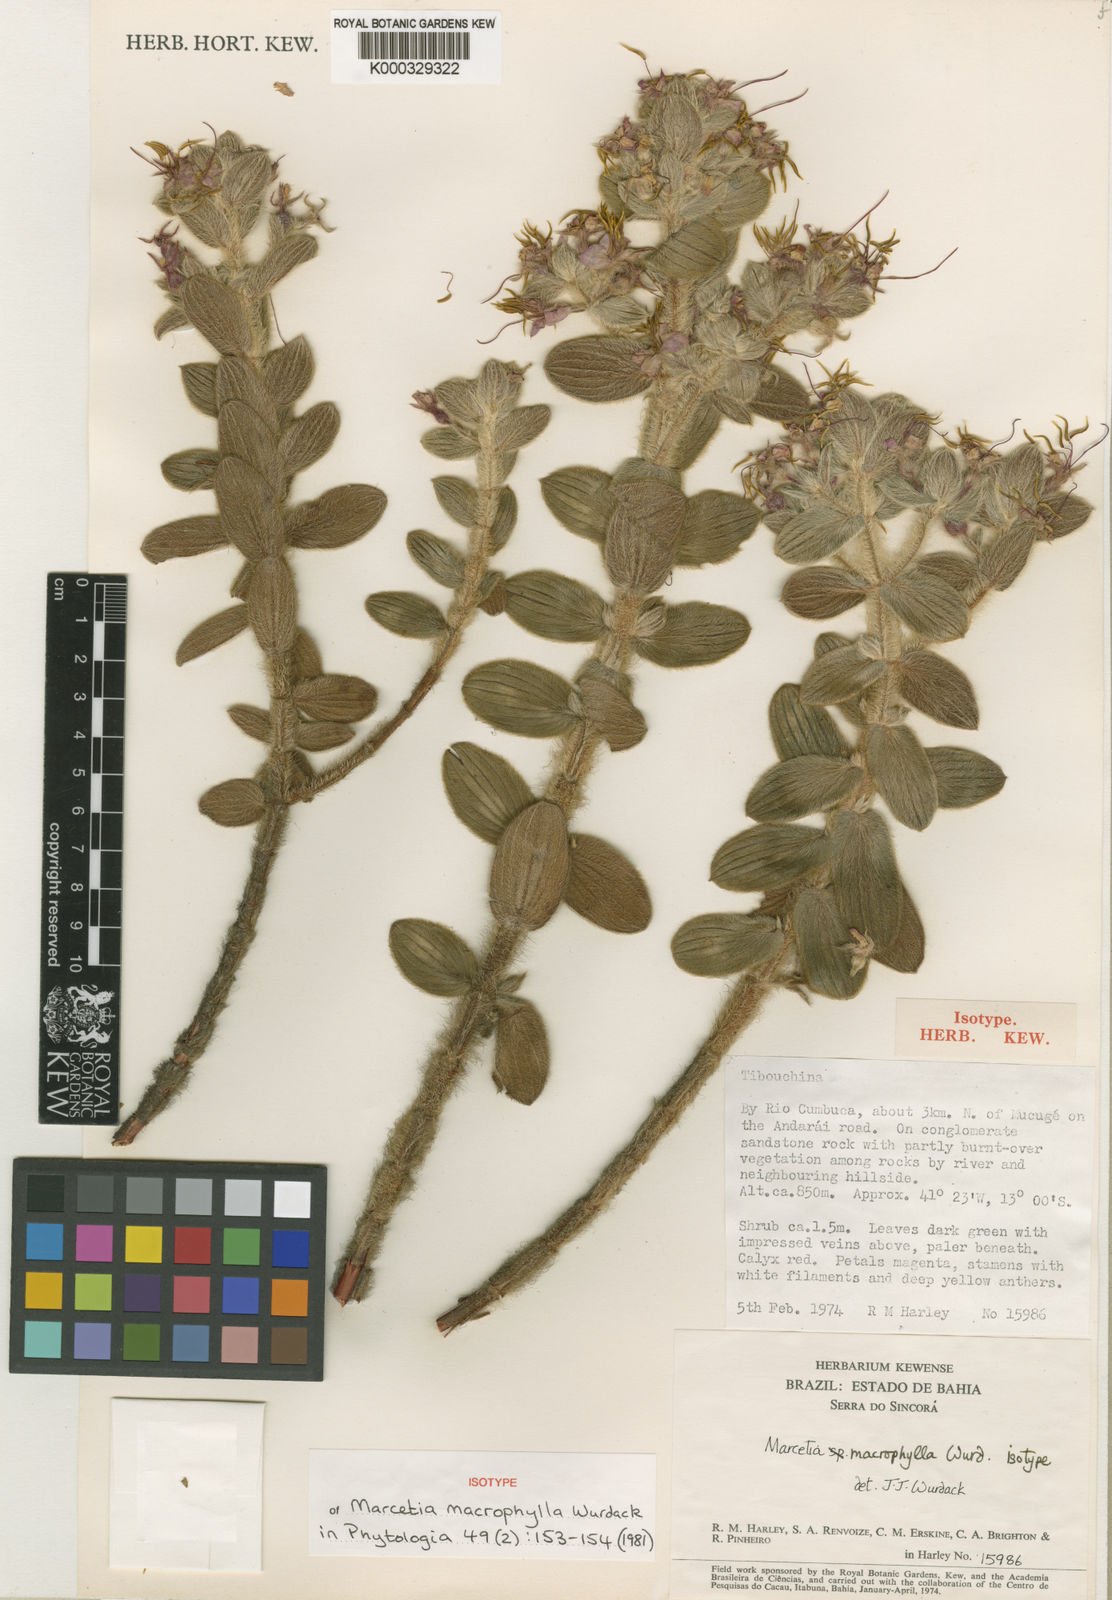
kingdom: Plantae
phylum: Tracheophyta
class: Magnoliopsida
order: Myrtales
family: Melastomataceae
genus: Marcetia
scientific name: Marcetia macrophylla
